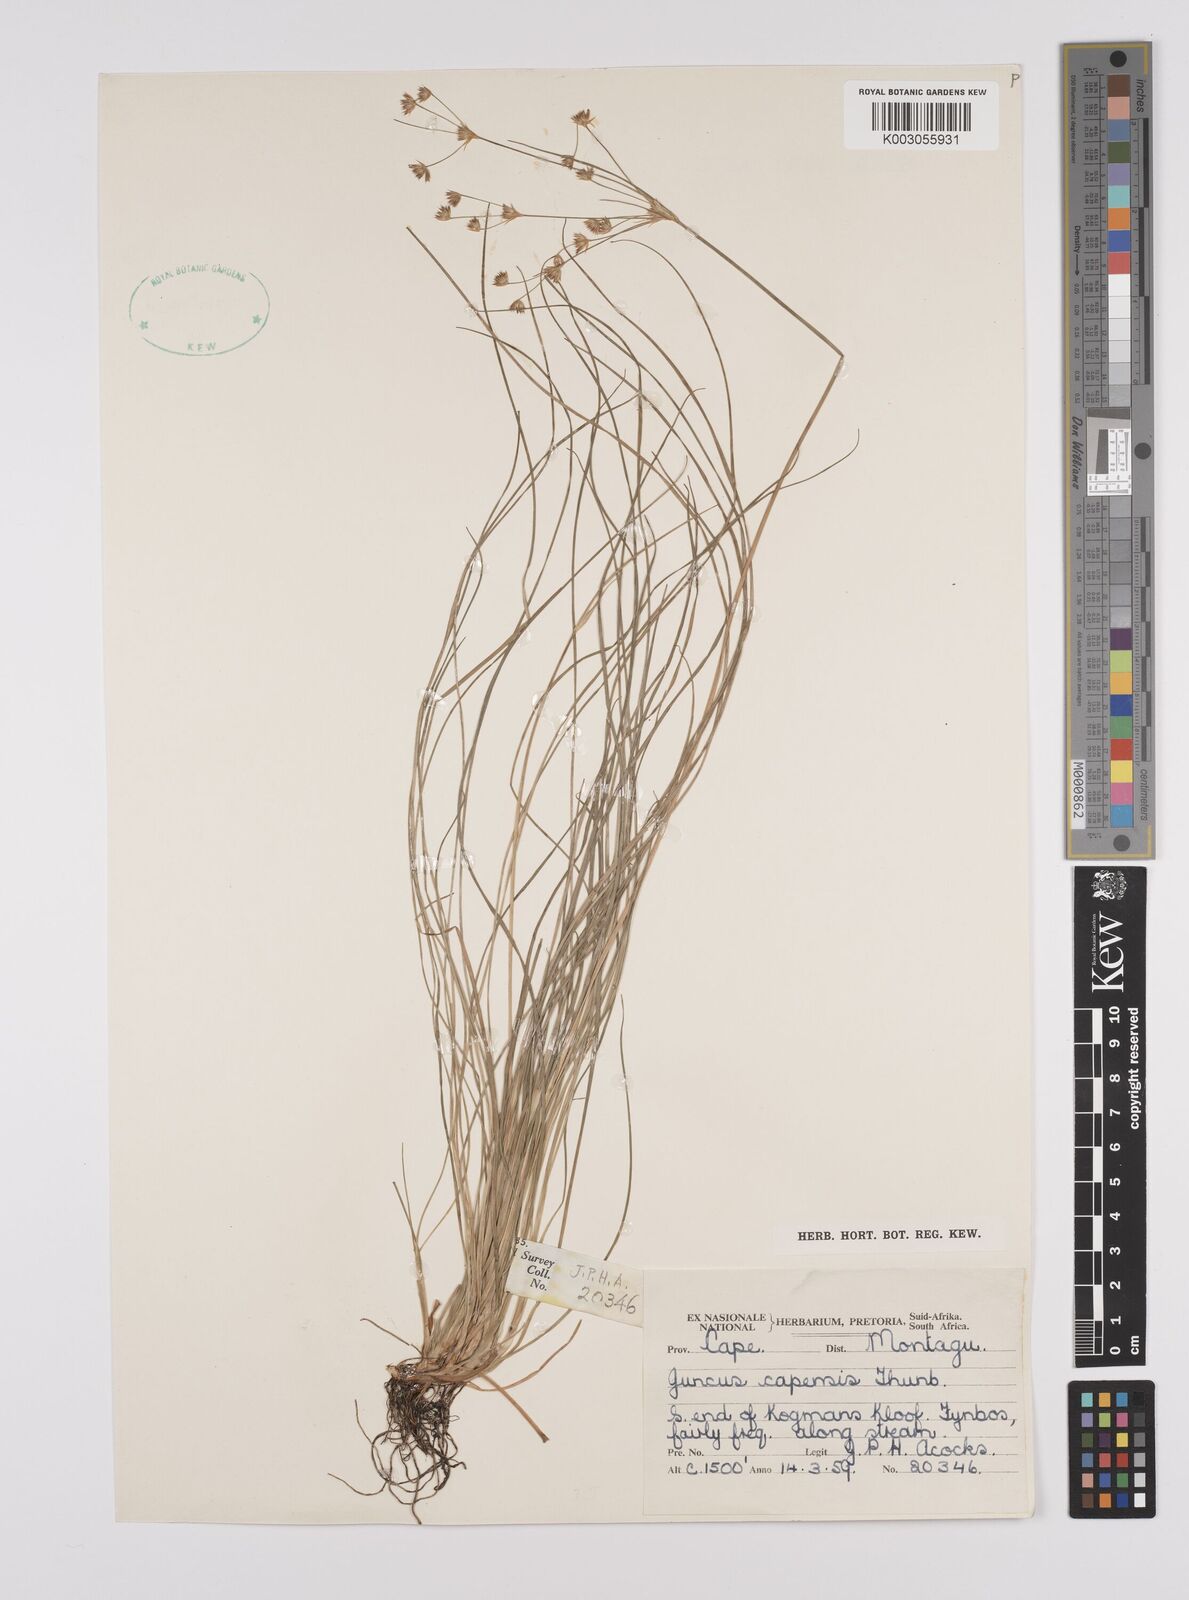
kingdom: Plantae
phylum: Tracheophyta
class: Liliopsida
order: Poales
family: Juncaceae
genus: Juncus
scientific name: Juncus capensis
